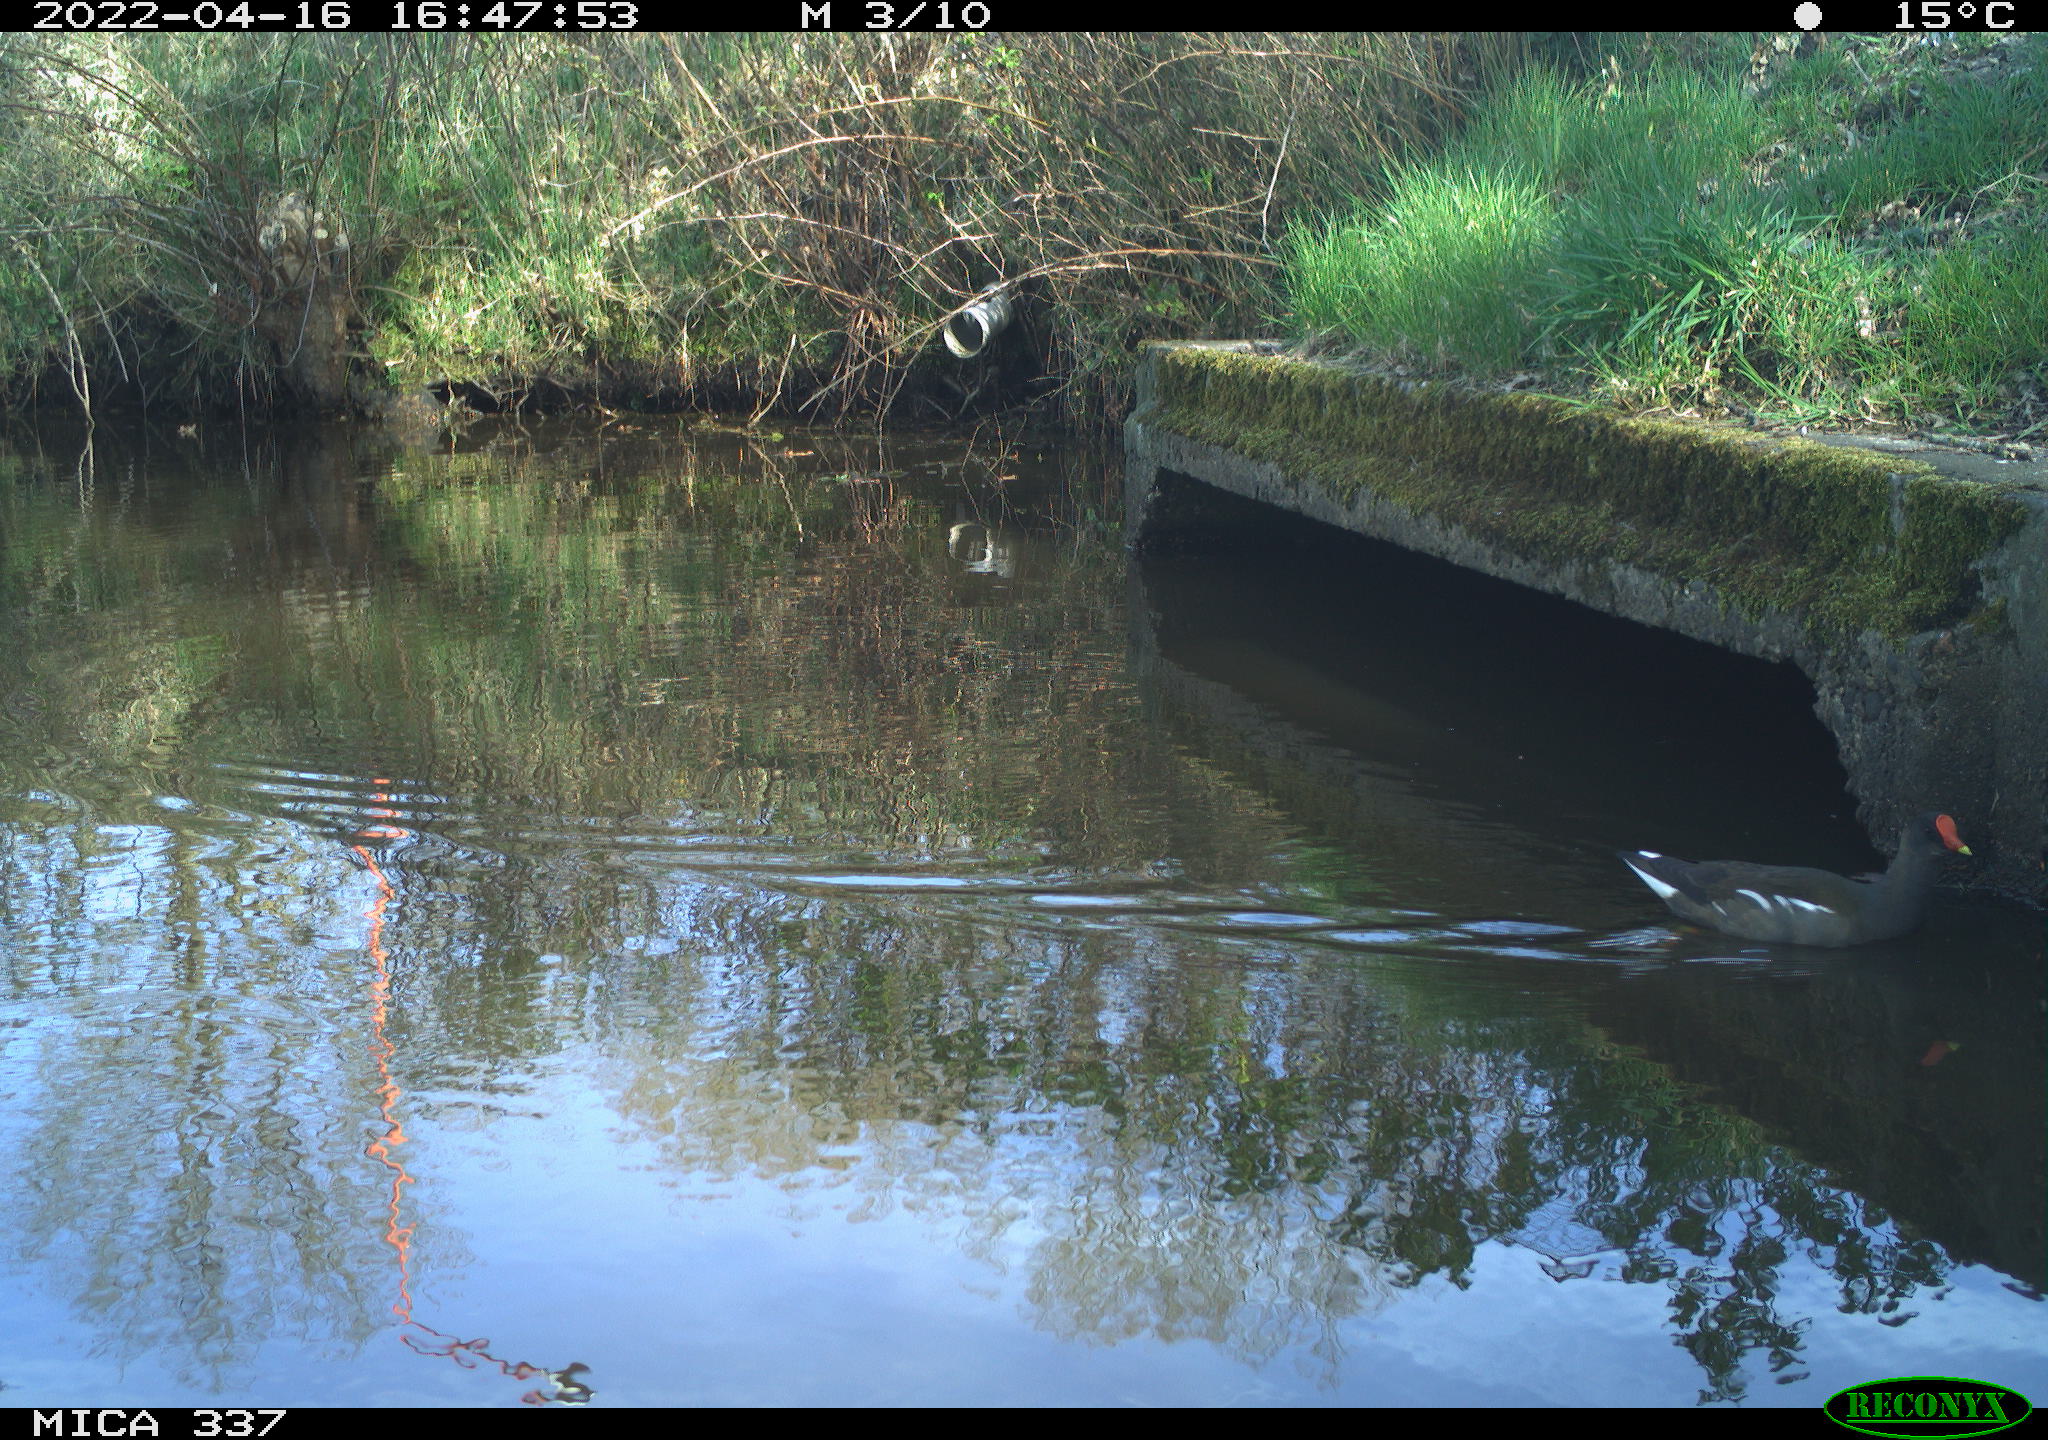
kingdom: Animalia
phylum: Chordata
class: Aves
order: Gruiformes
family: Rallidae
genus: Gallinula
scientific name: Gallinula chloropus
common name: Common moorhen
